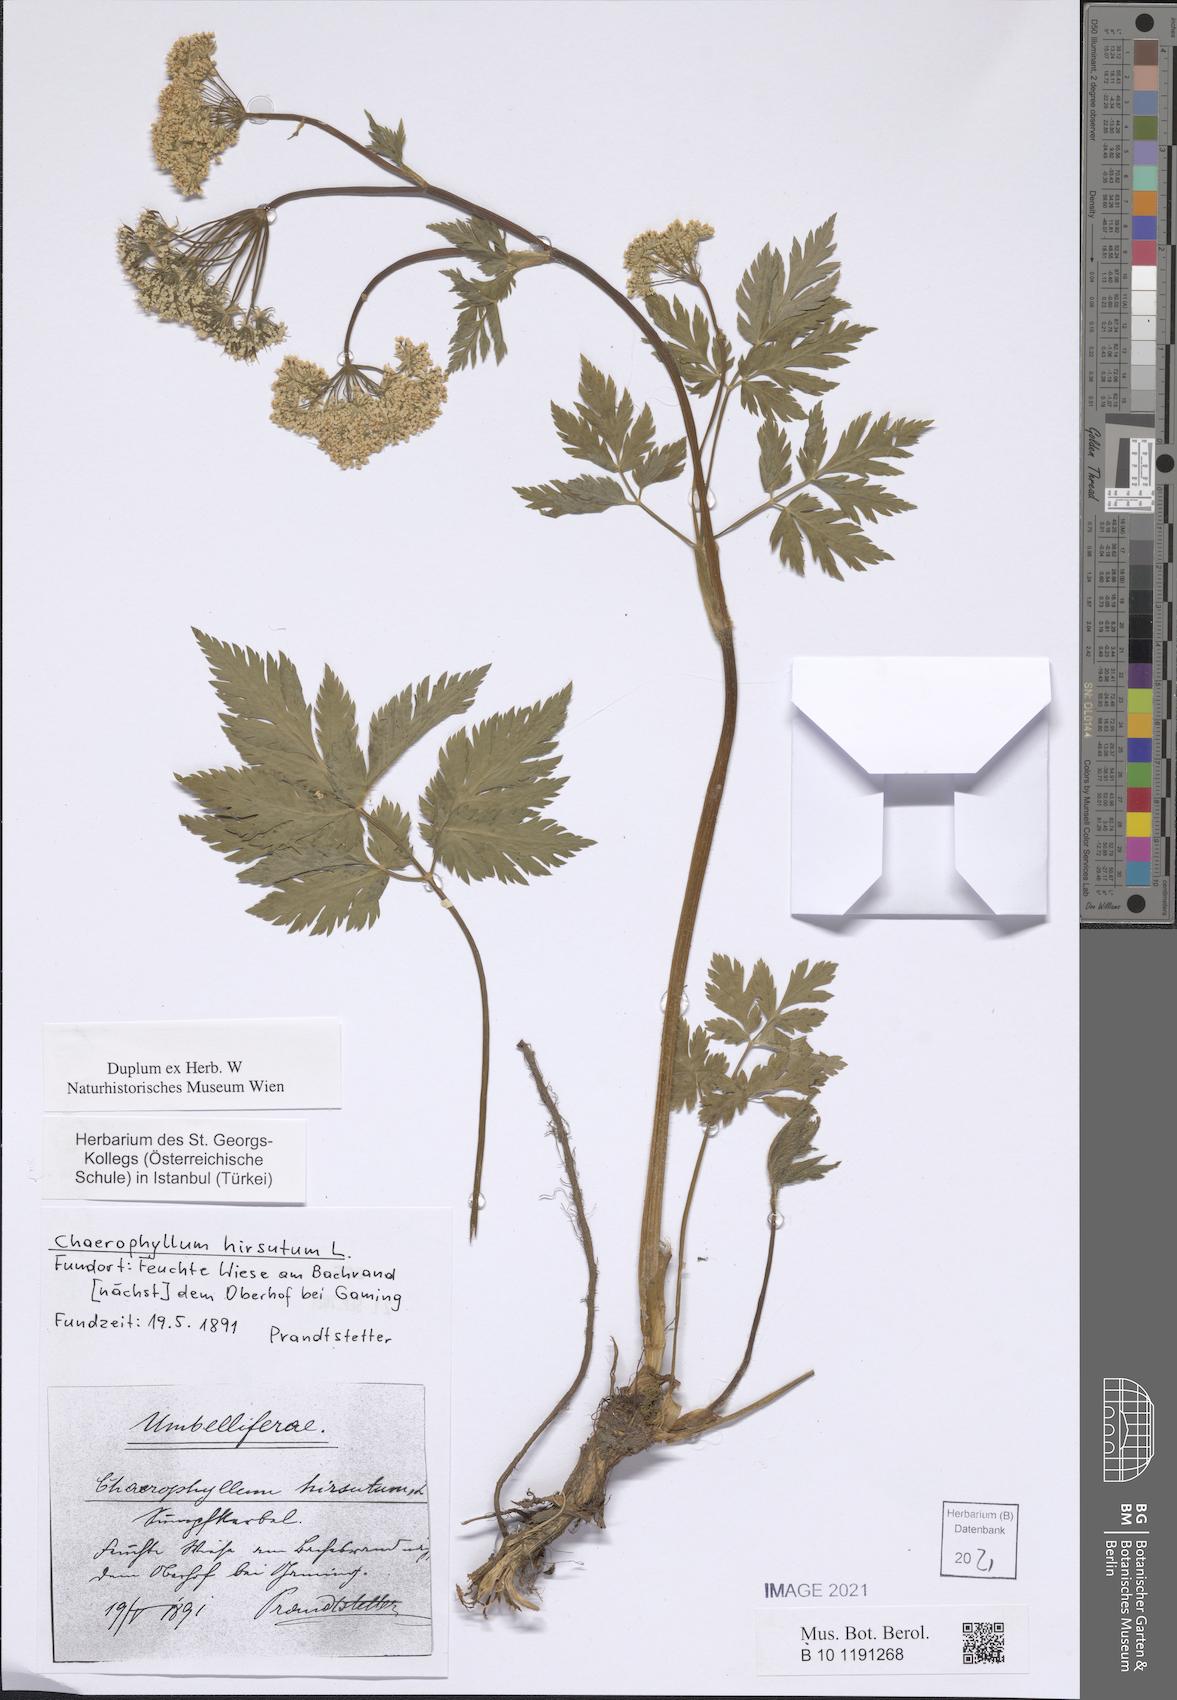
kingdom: Plantae
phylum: Tracheophyta
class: Magnoliopsida
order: Apiales
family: Apiaceae
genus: Chaerophyllum
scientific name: Chaerophyllum hirsutum
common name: Hairy chervil
